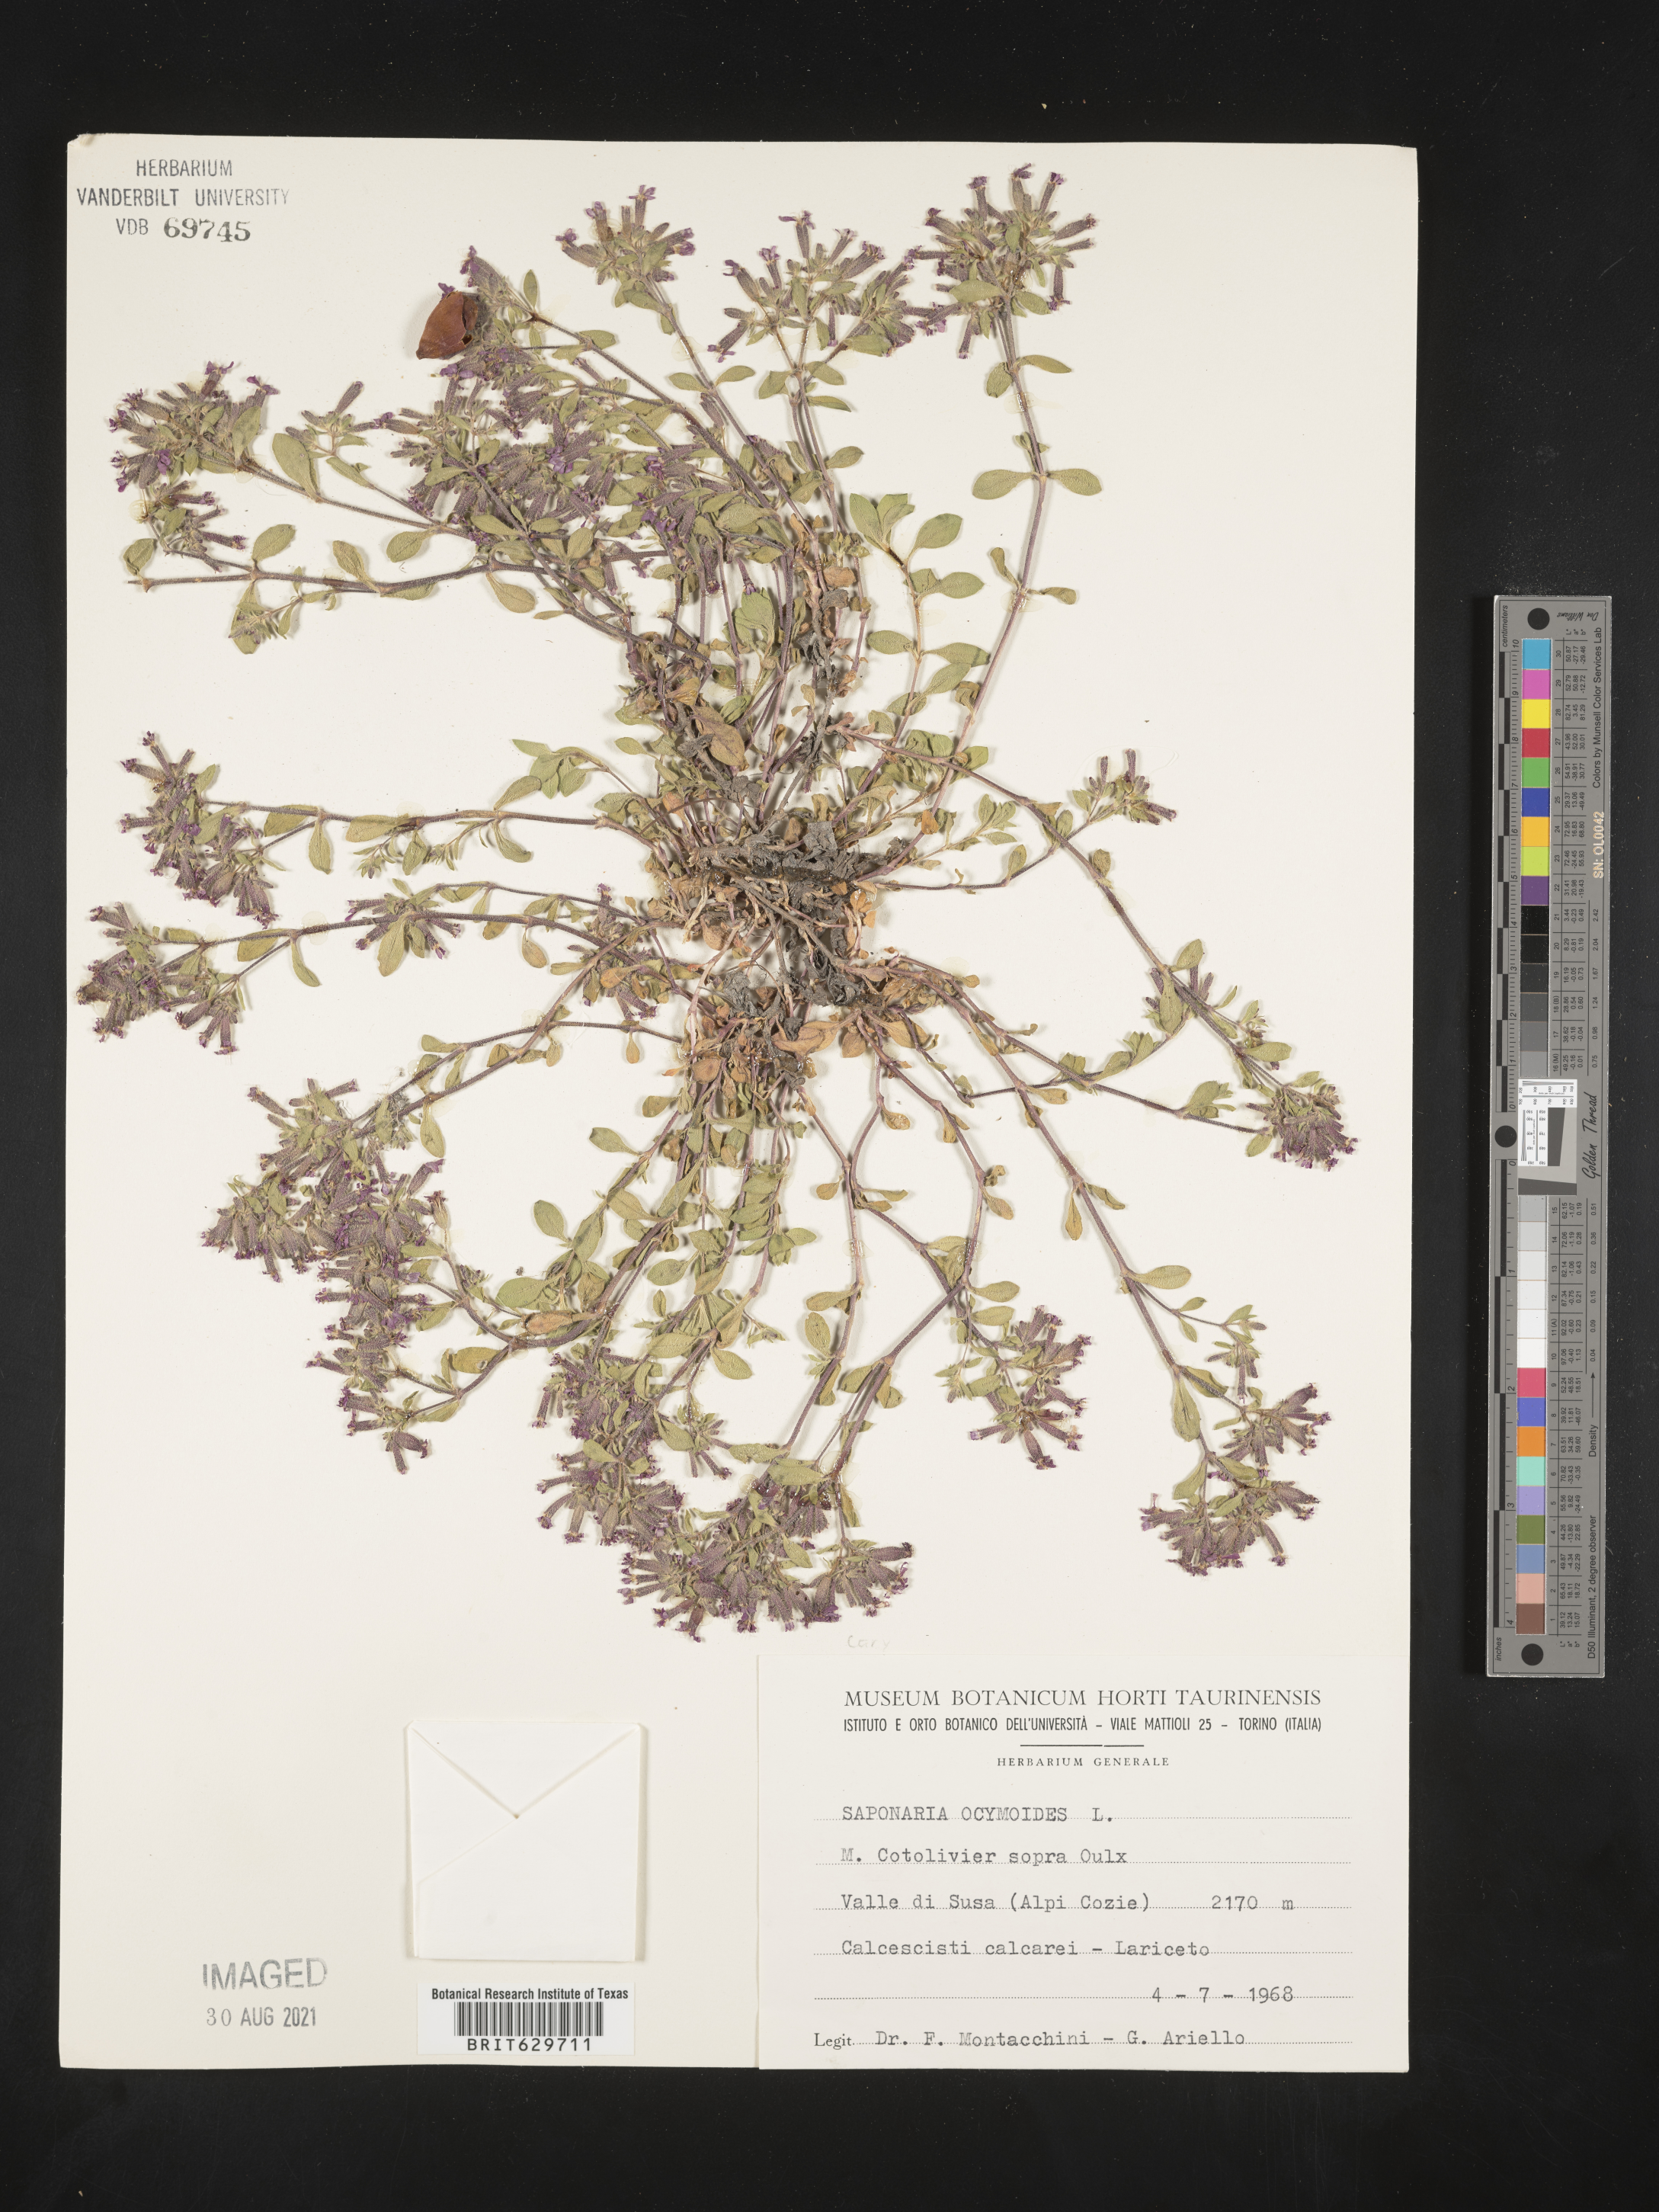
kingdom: Plantae
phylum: Tracheophyta
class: Magnoliopsida
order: Caryophyllales
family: Caryophyllaceae
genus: Saponaria
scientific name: Saponaria ocymoides
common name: Rock soapwort
